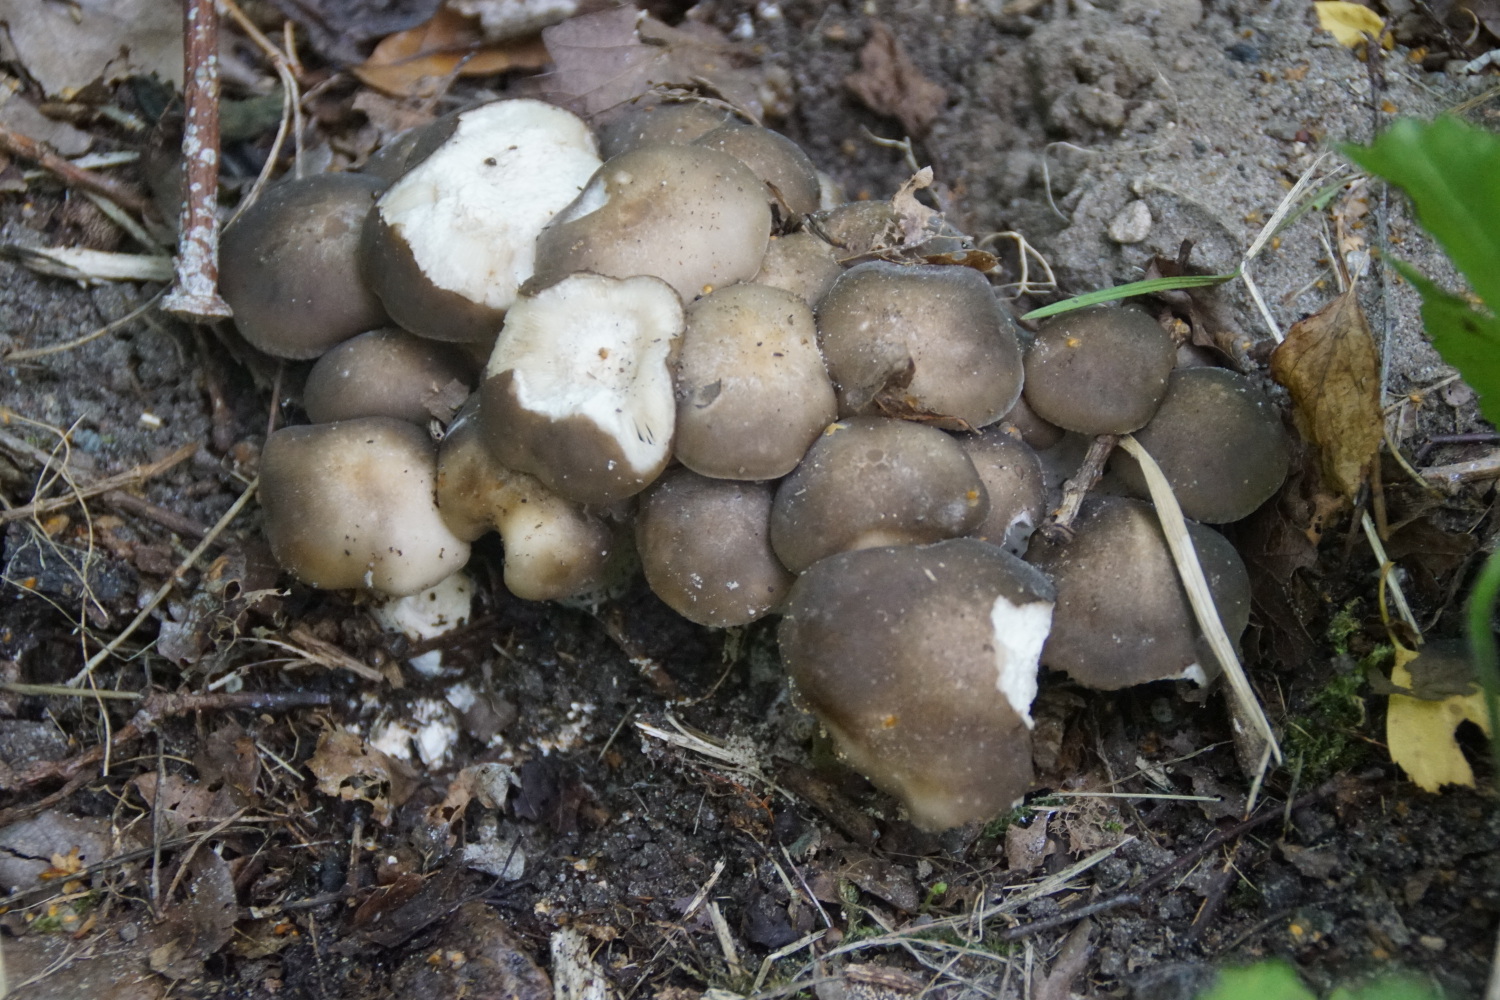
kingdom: Fungi
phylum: Basidiomycota
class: Agaricomycetes
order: Agaricales
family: Lyophyllaceae
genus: Lyophyllum
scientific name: Lyophyllum decastes
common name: Clustered domecap
